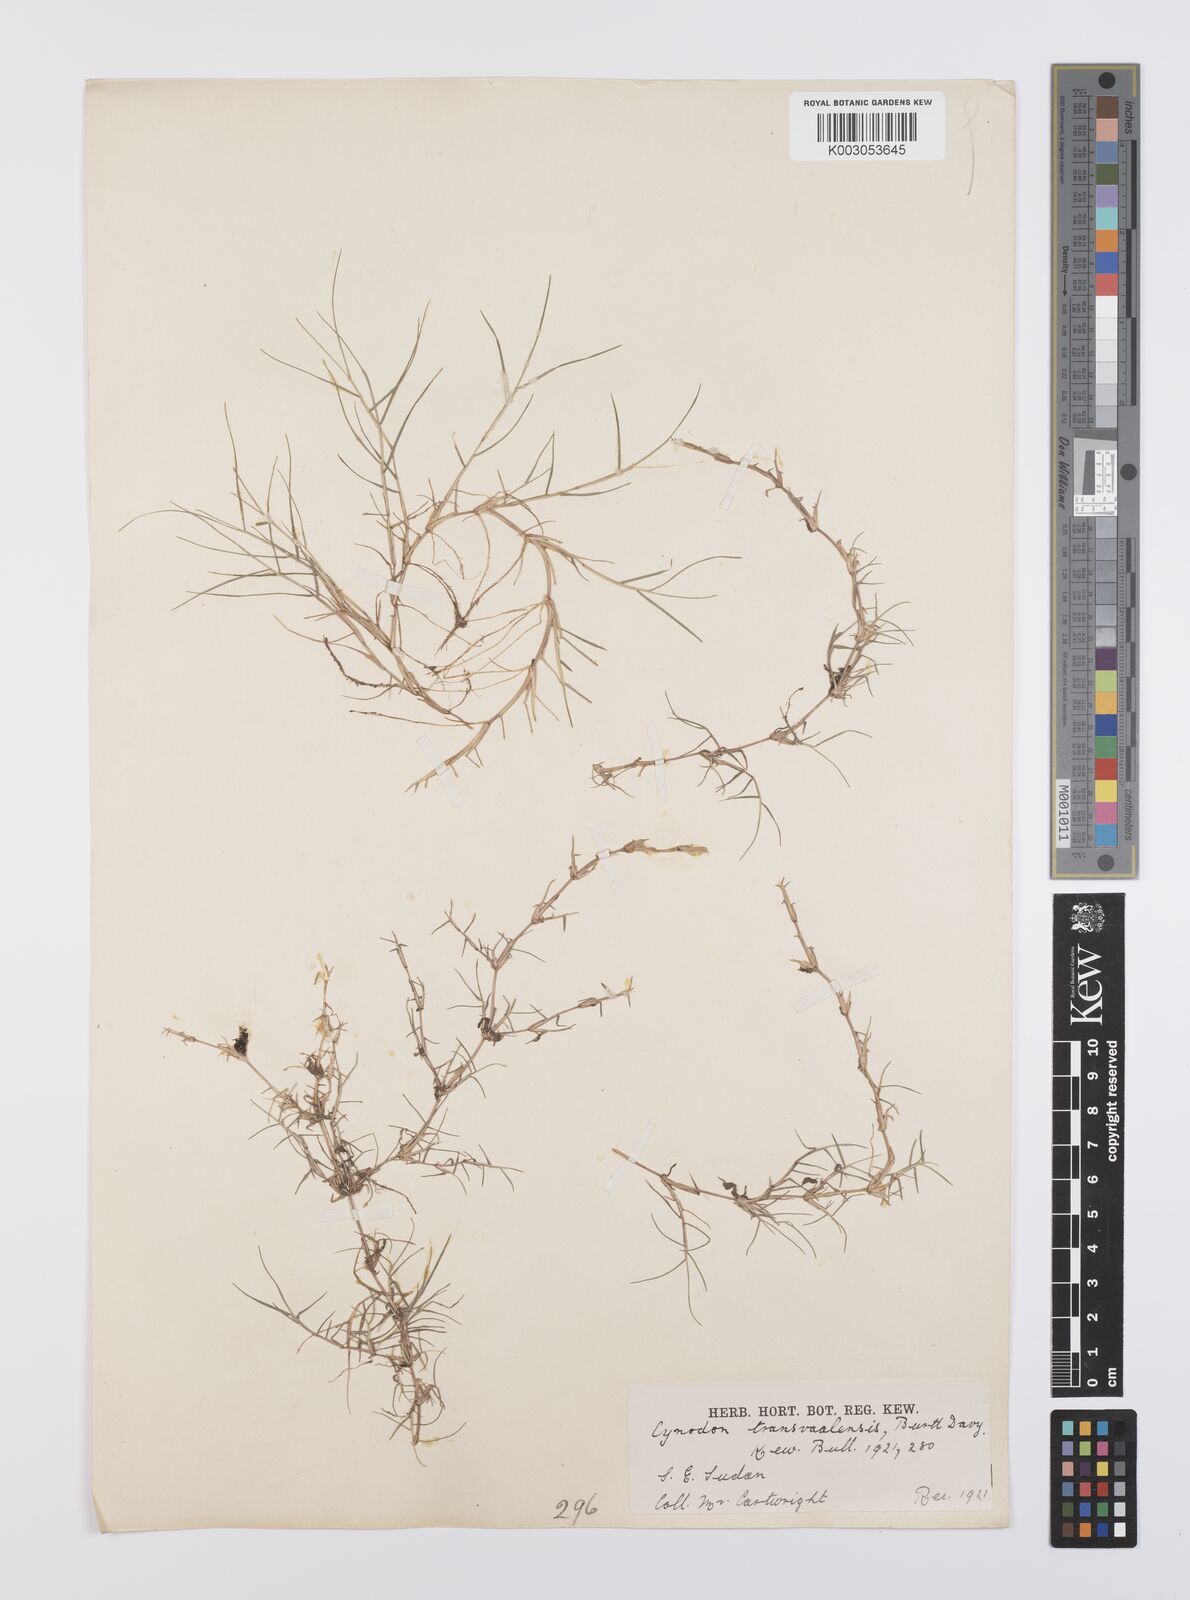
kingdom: Plantae
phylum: Tracheophyta
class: Liliopsida
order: Poales
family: Poaceae
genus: Cynodon
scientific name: Cynodon transvaalensis
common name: African bermuda grass
